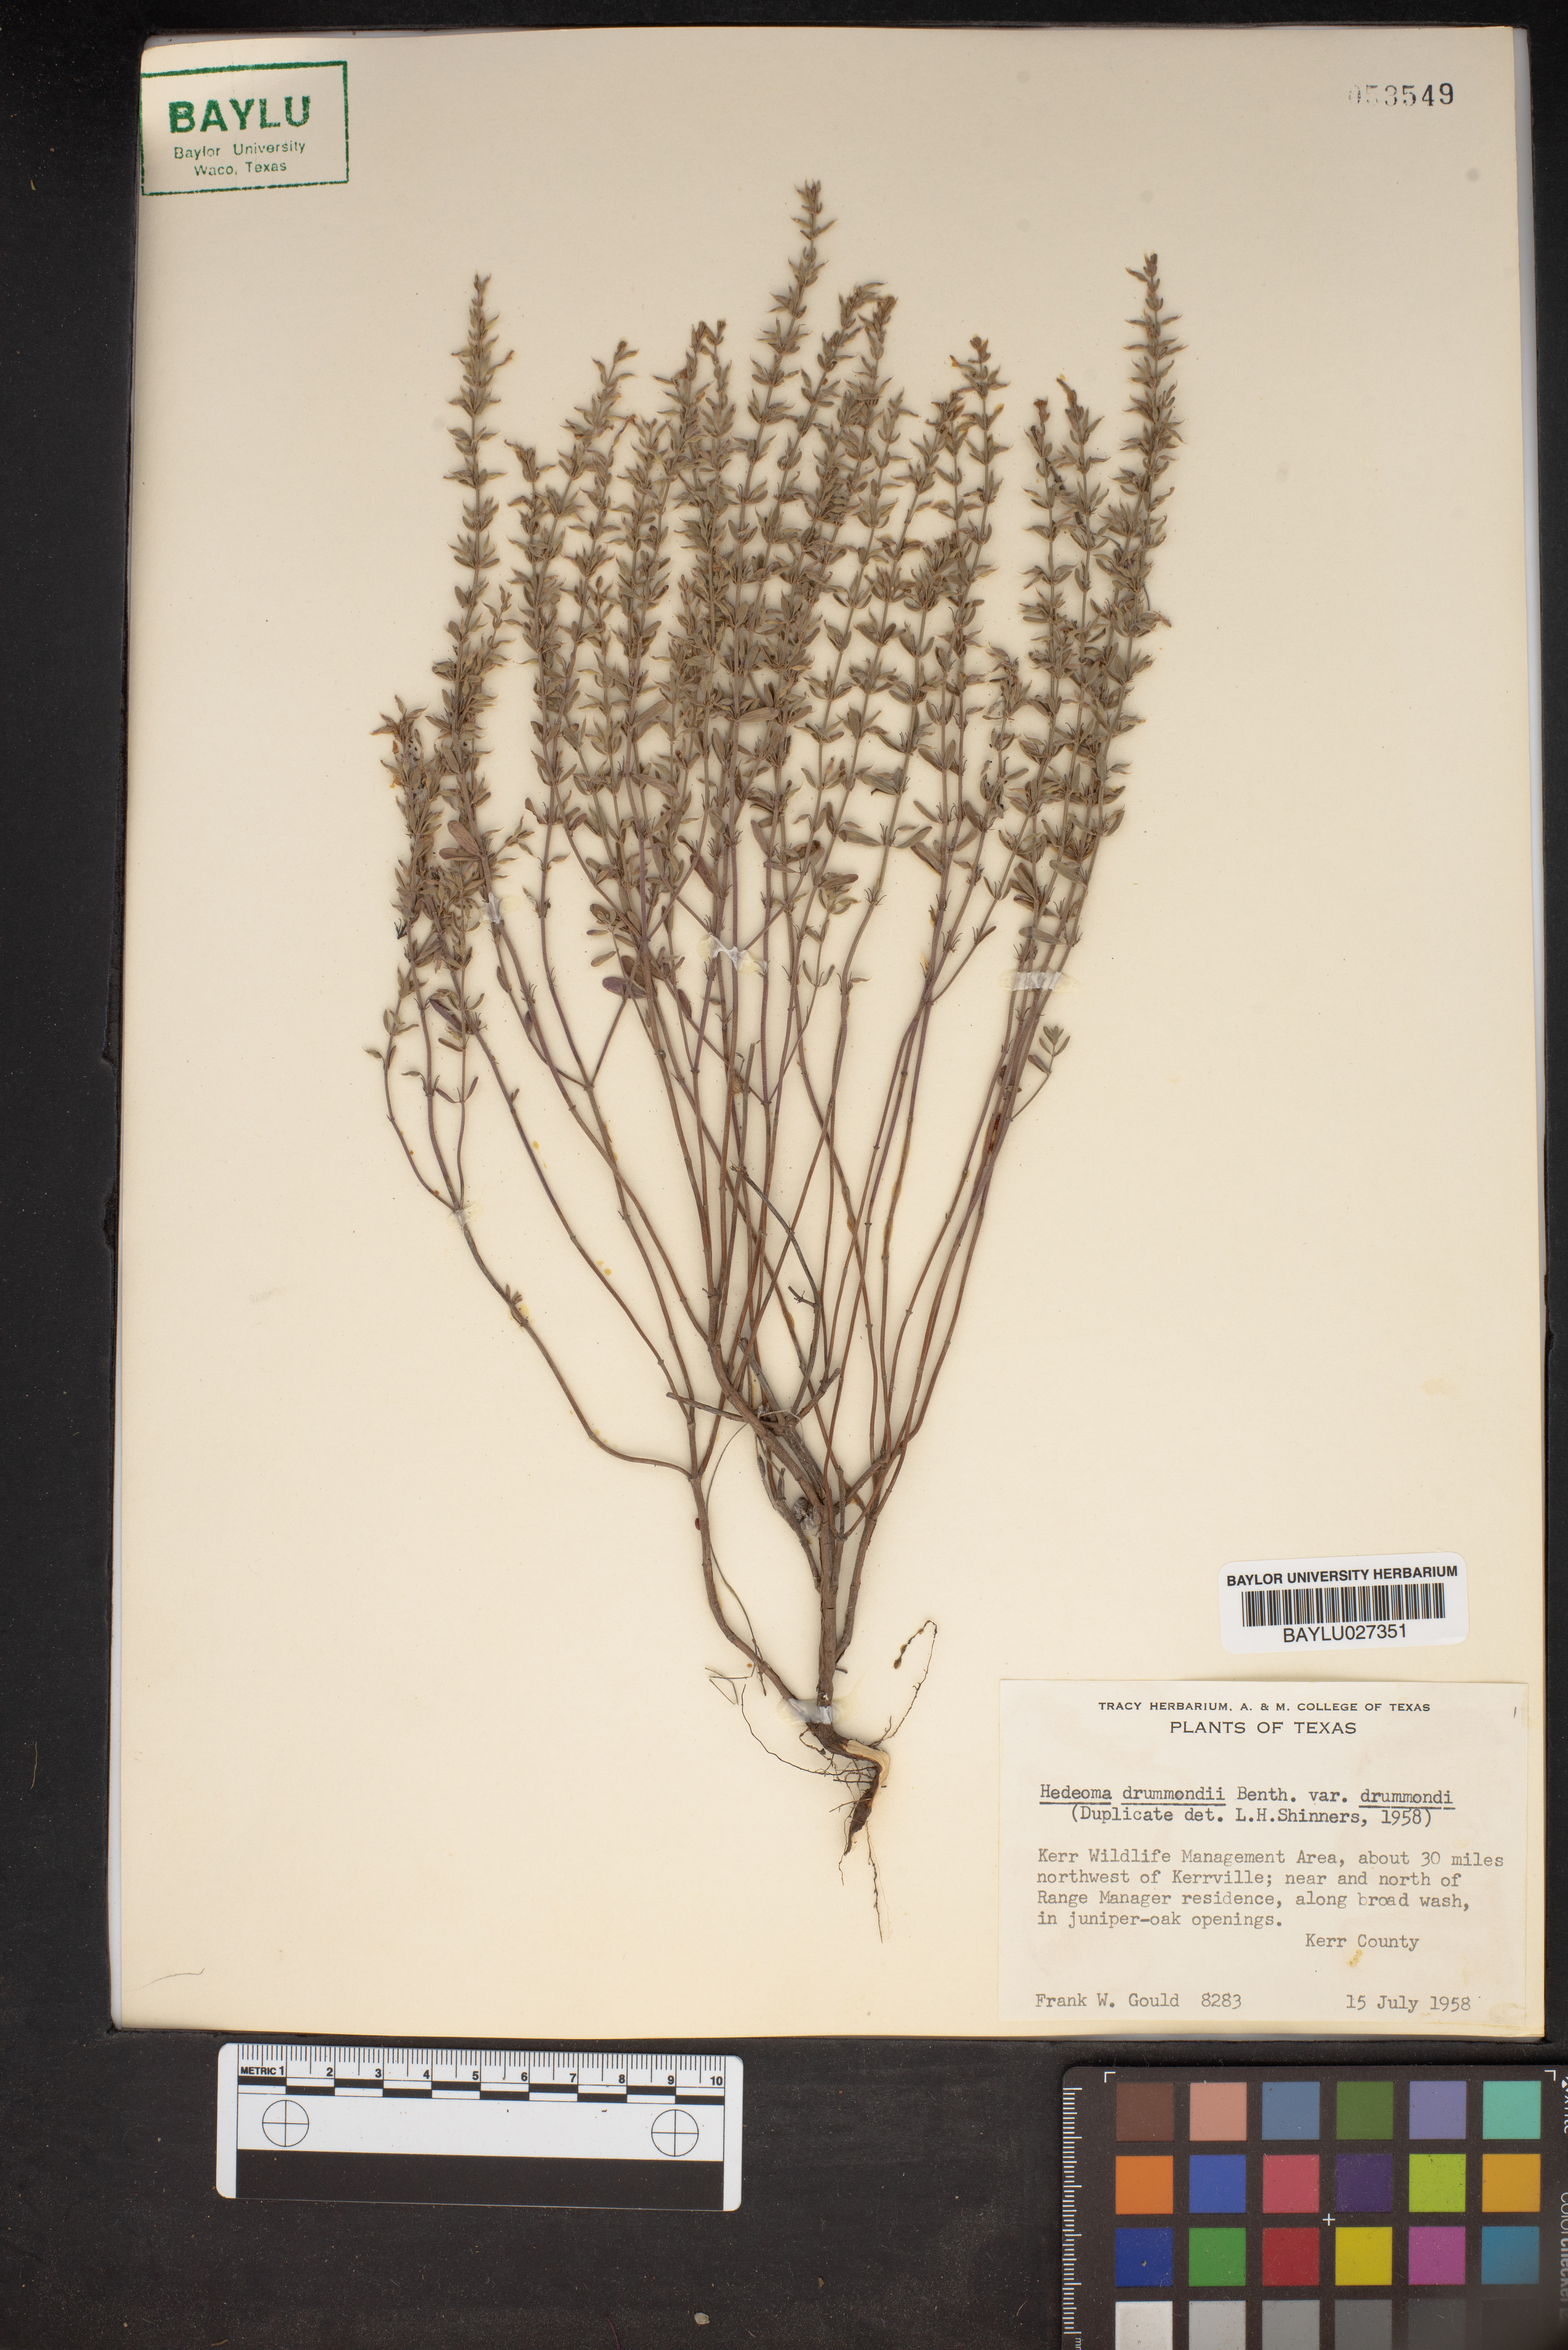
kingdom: Plantae
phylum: Tracheophyta
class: Magnoliopsida
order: Lamiales
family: Lamiaceae
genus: Hedeoma
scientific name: Hedeoma drummondii
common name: New mexico pennyroyal
